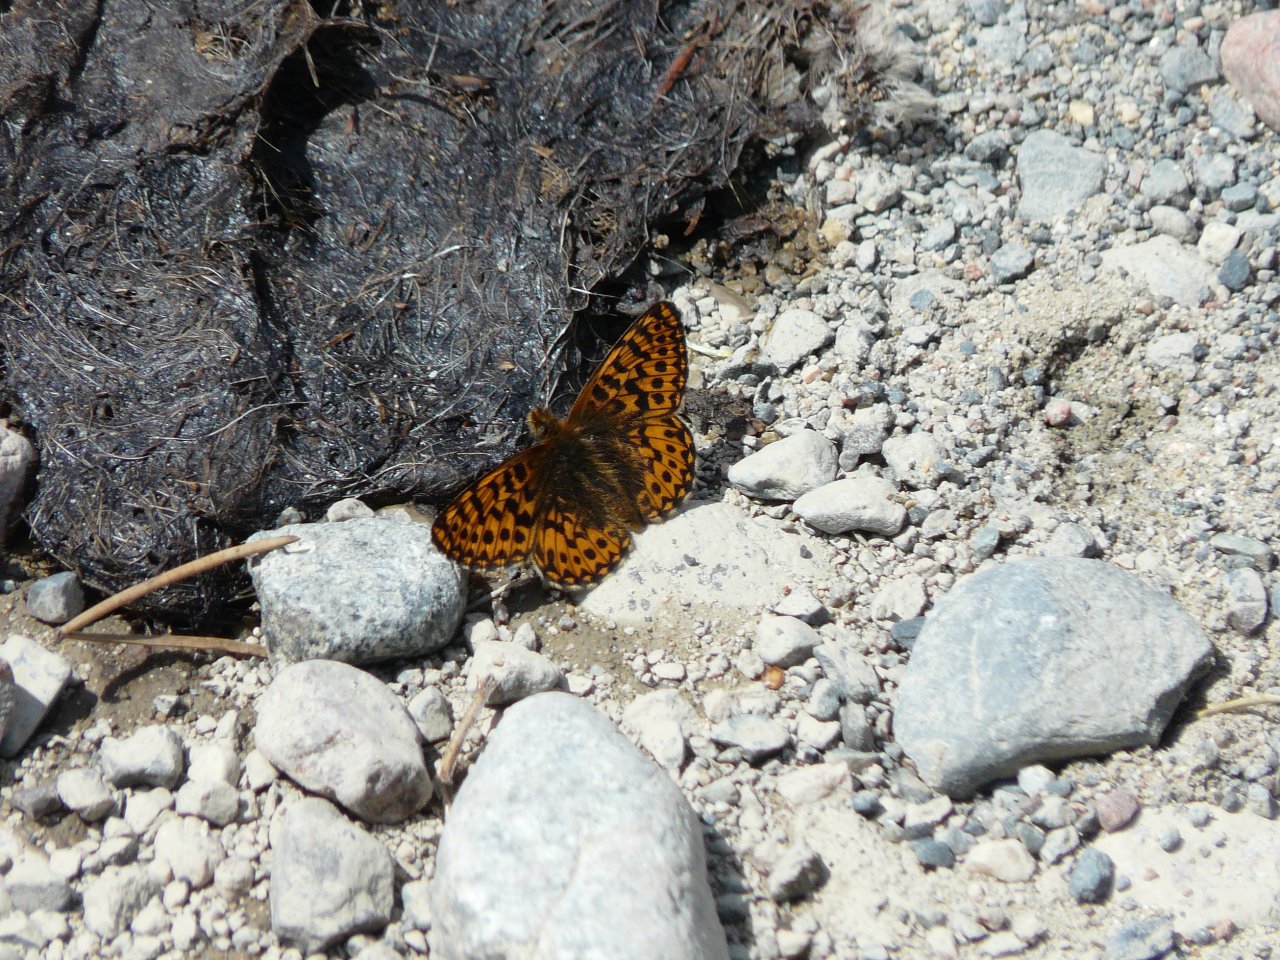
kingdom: Animalia
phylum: Arthropoda
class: Insecta
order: Lepidoptera
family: Nymphalidae
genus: Boloria
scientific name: Boloria freija
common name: Freija Fritillary
